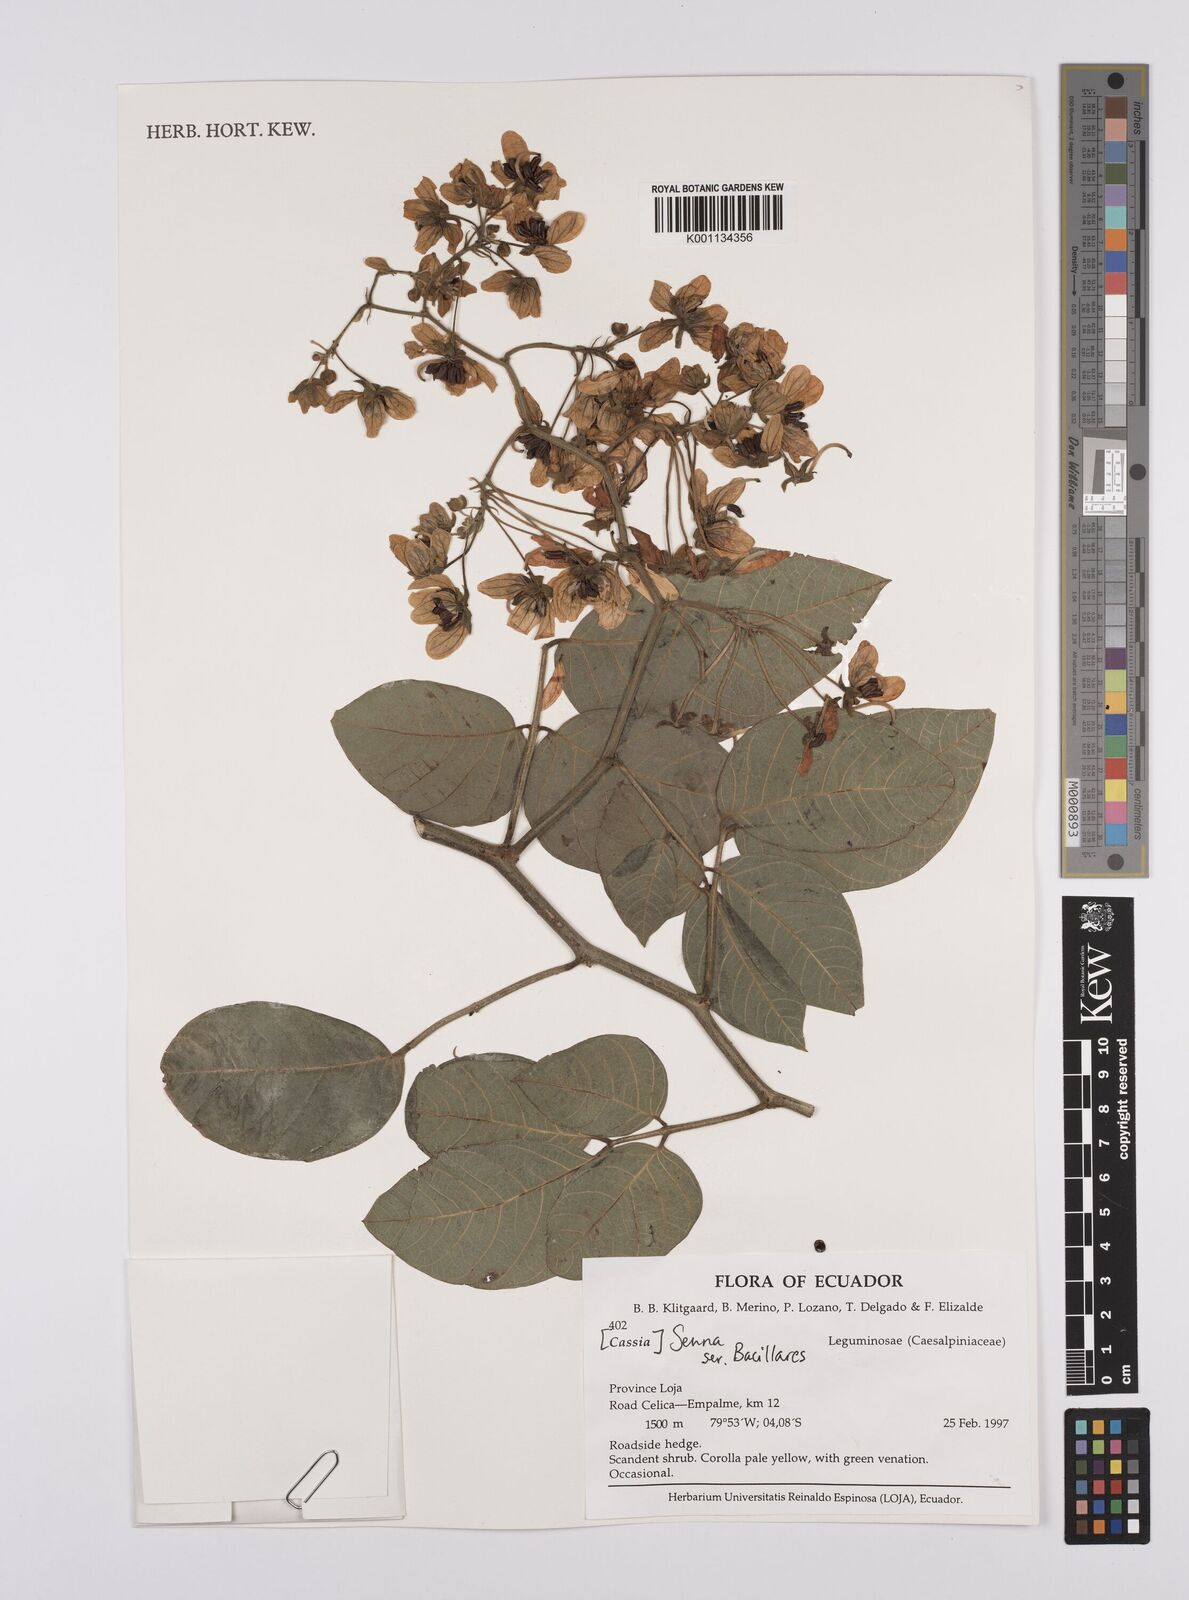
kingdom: Plantae
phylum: Tracheophyta
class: Magnoliopsida
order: Fabales
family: Fabaceae
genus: Senna
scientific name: Senna
